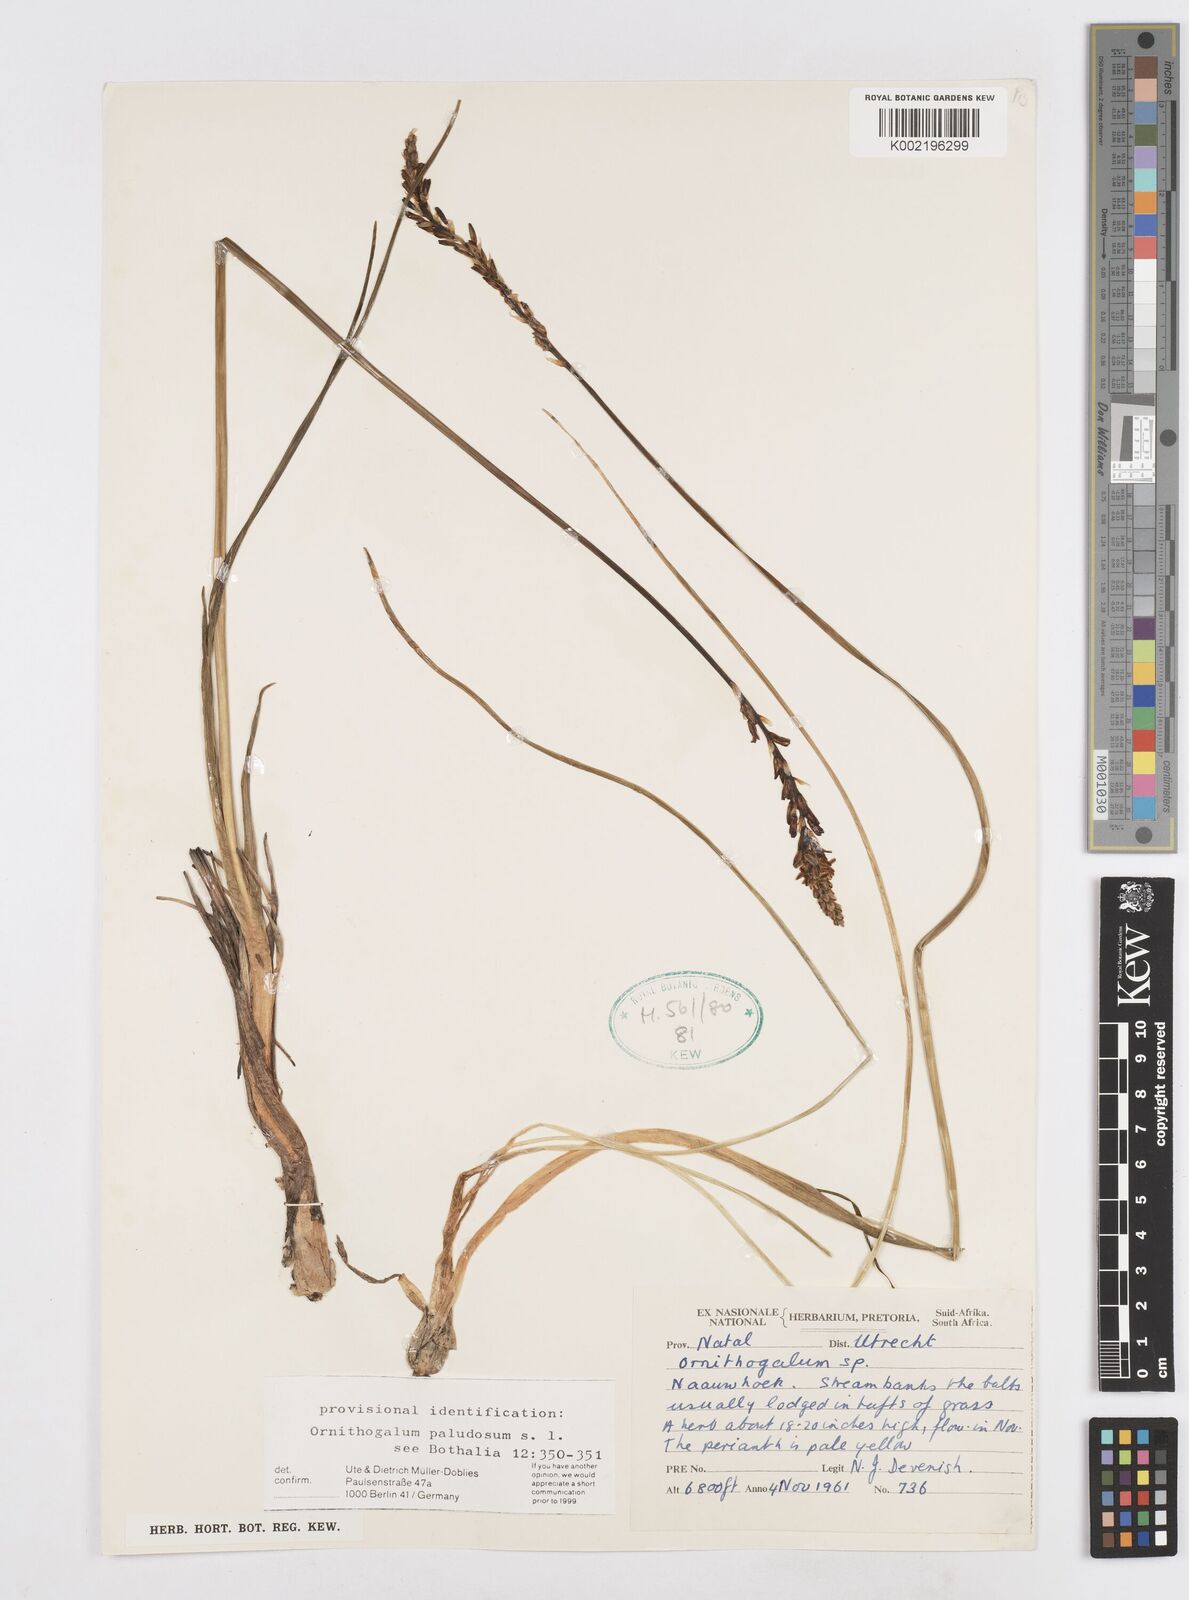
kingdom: Plantae
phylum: Tracheophyta
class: Liliopsida
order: Asparagales
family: Asparagaceae
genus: Ornithogalum
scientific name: Ornithogalum paludosum
